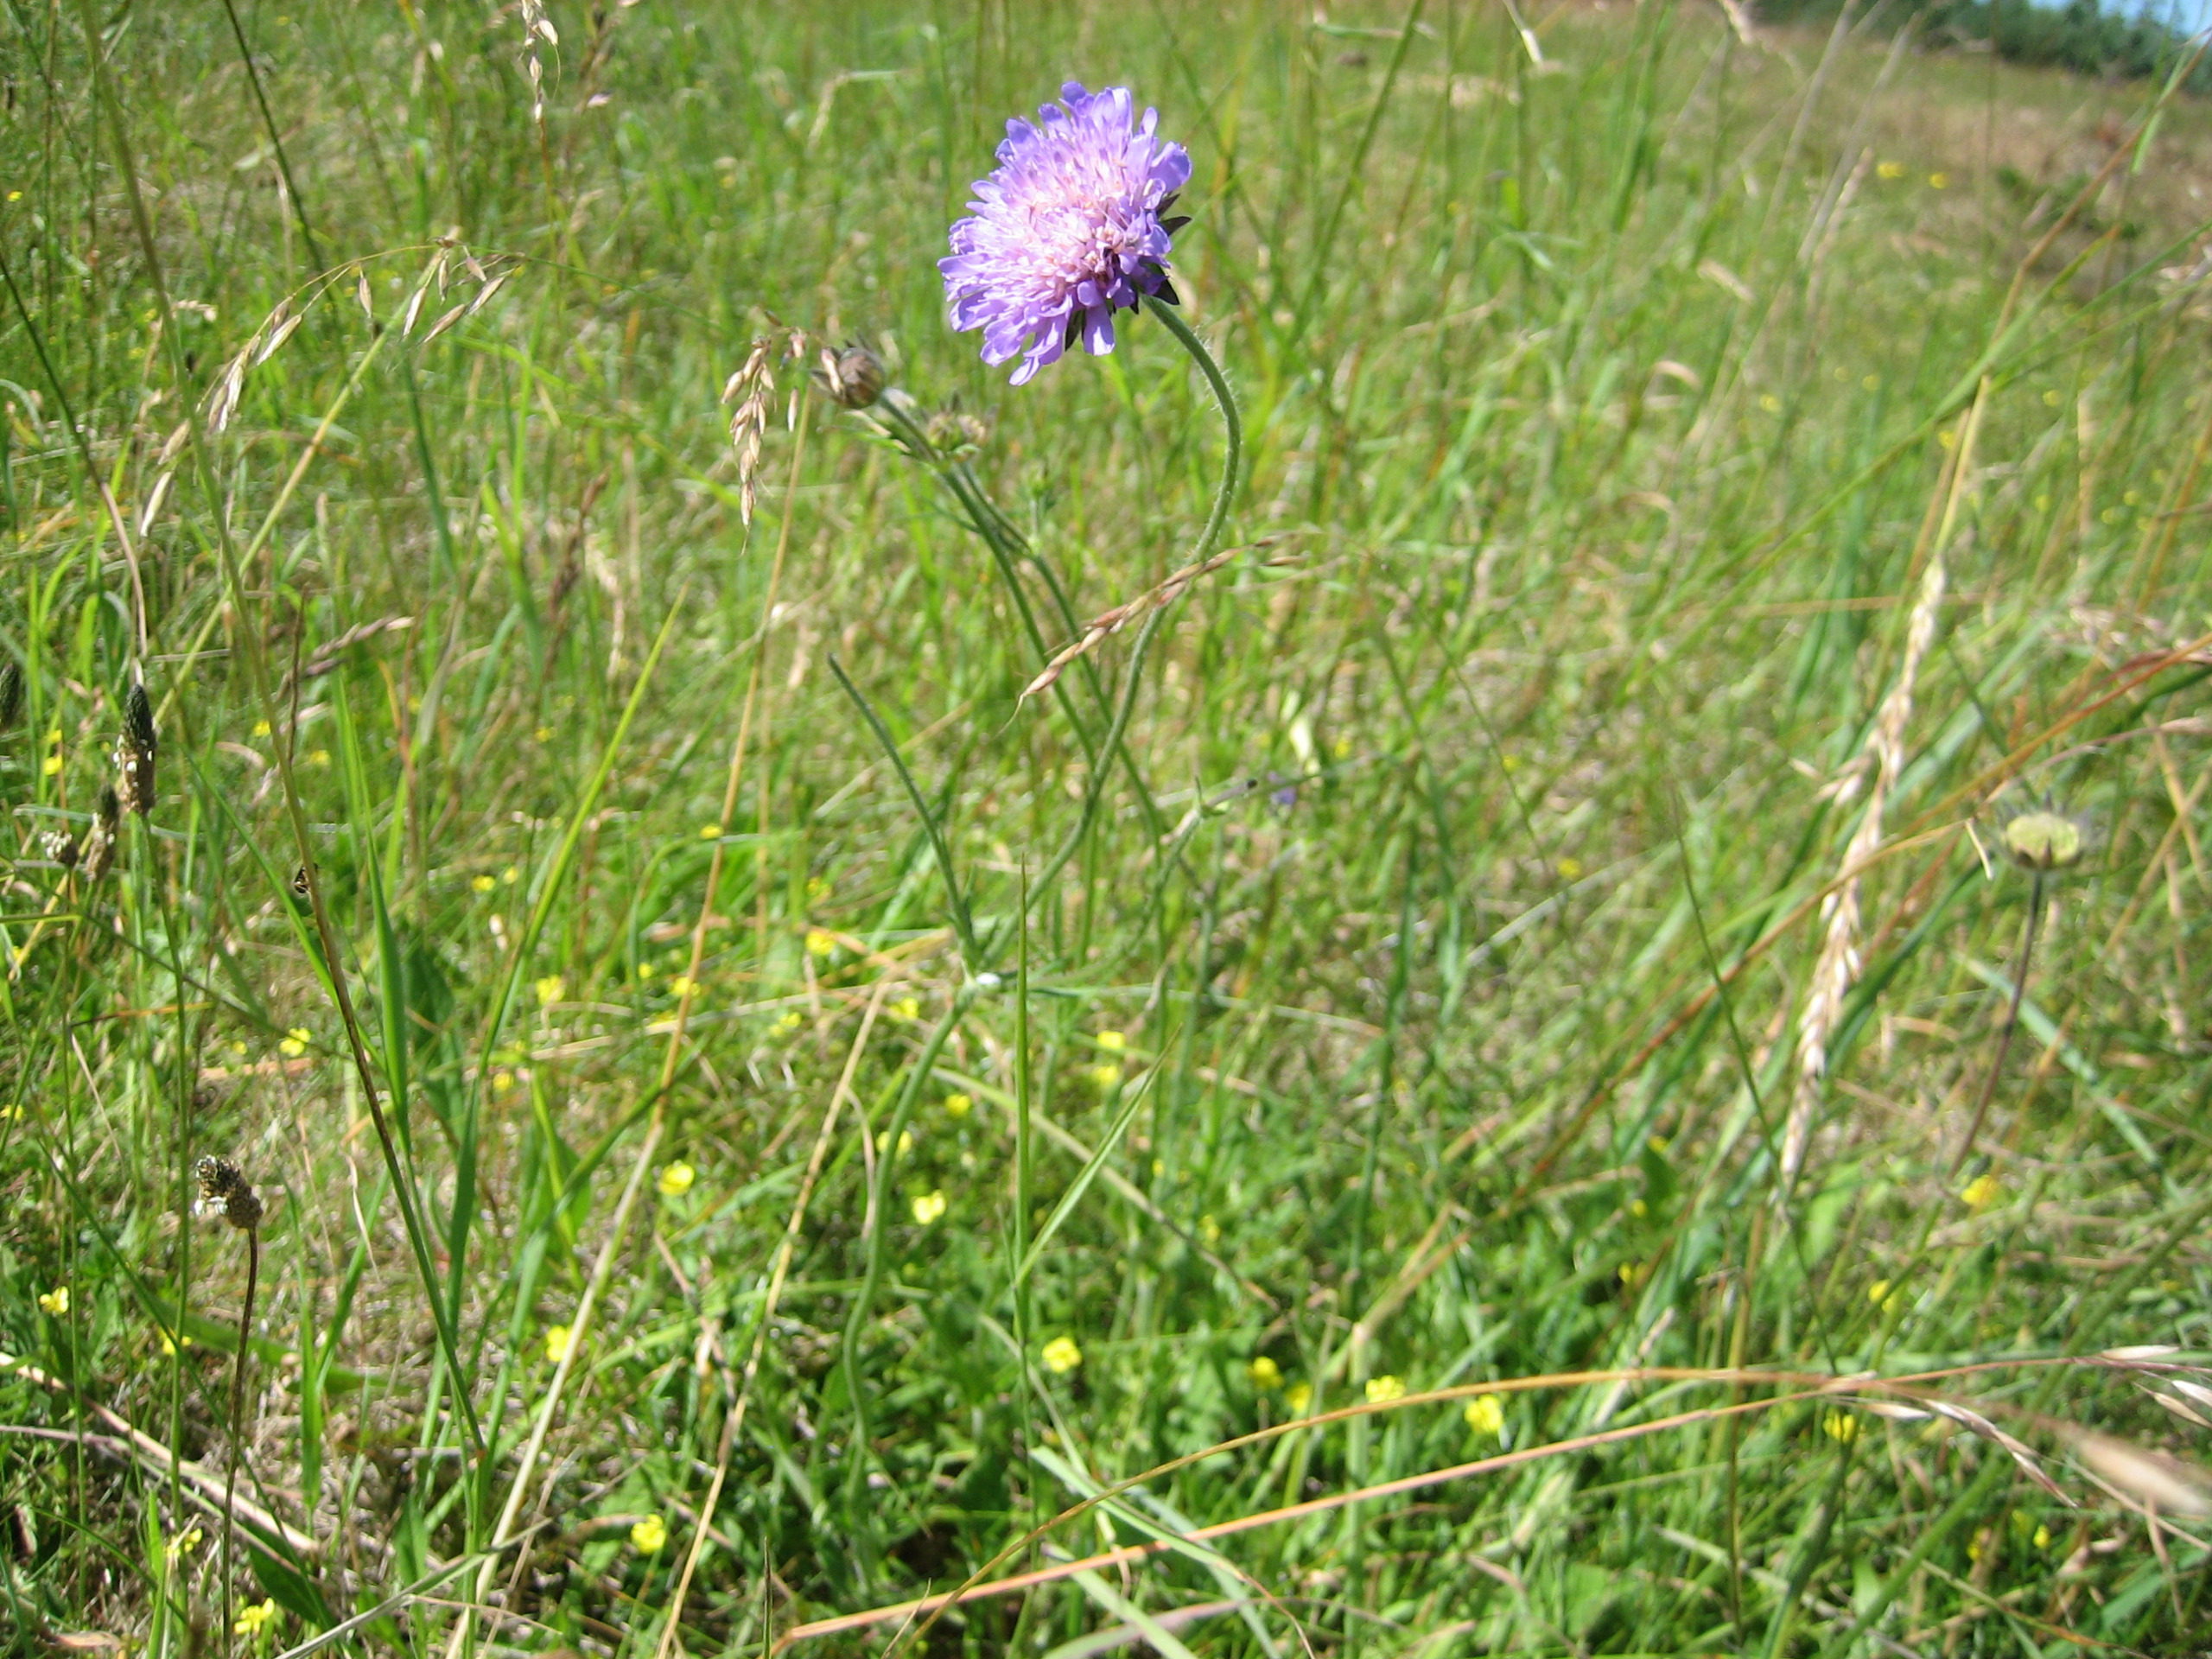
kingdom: Plantae
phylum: Tracheophyta
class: Magnoliopsida
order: Dipsacales
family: Caprifoliaceae
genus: Knautia
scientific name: Knautia arvensis
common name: Blåhat
